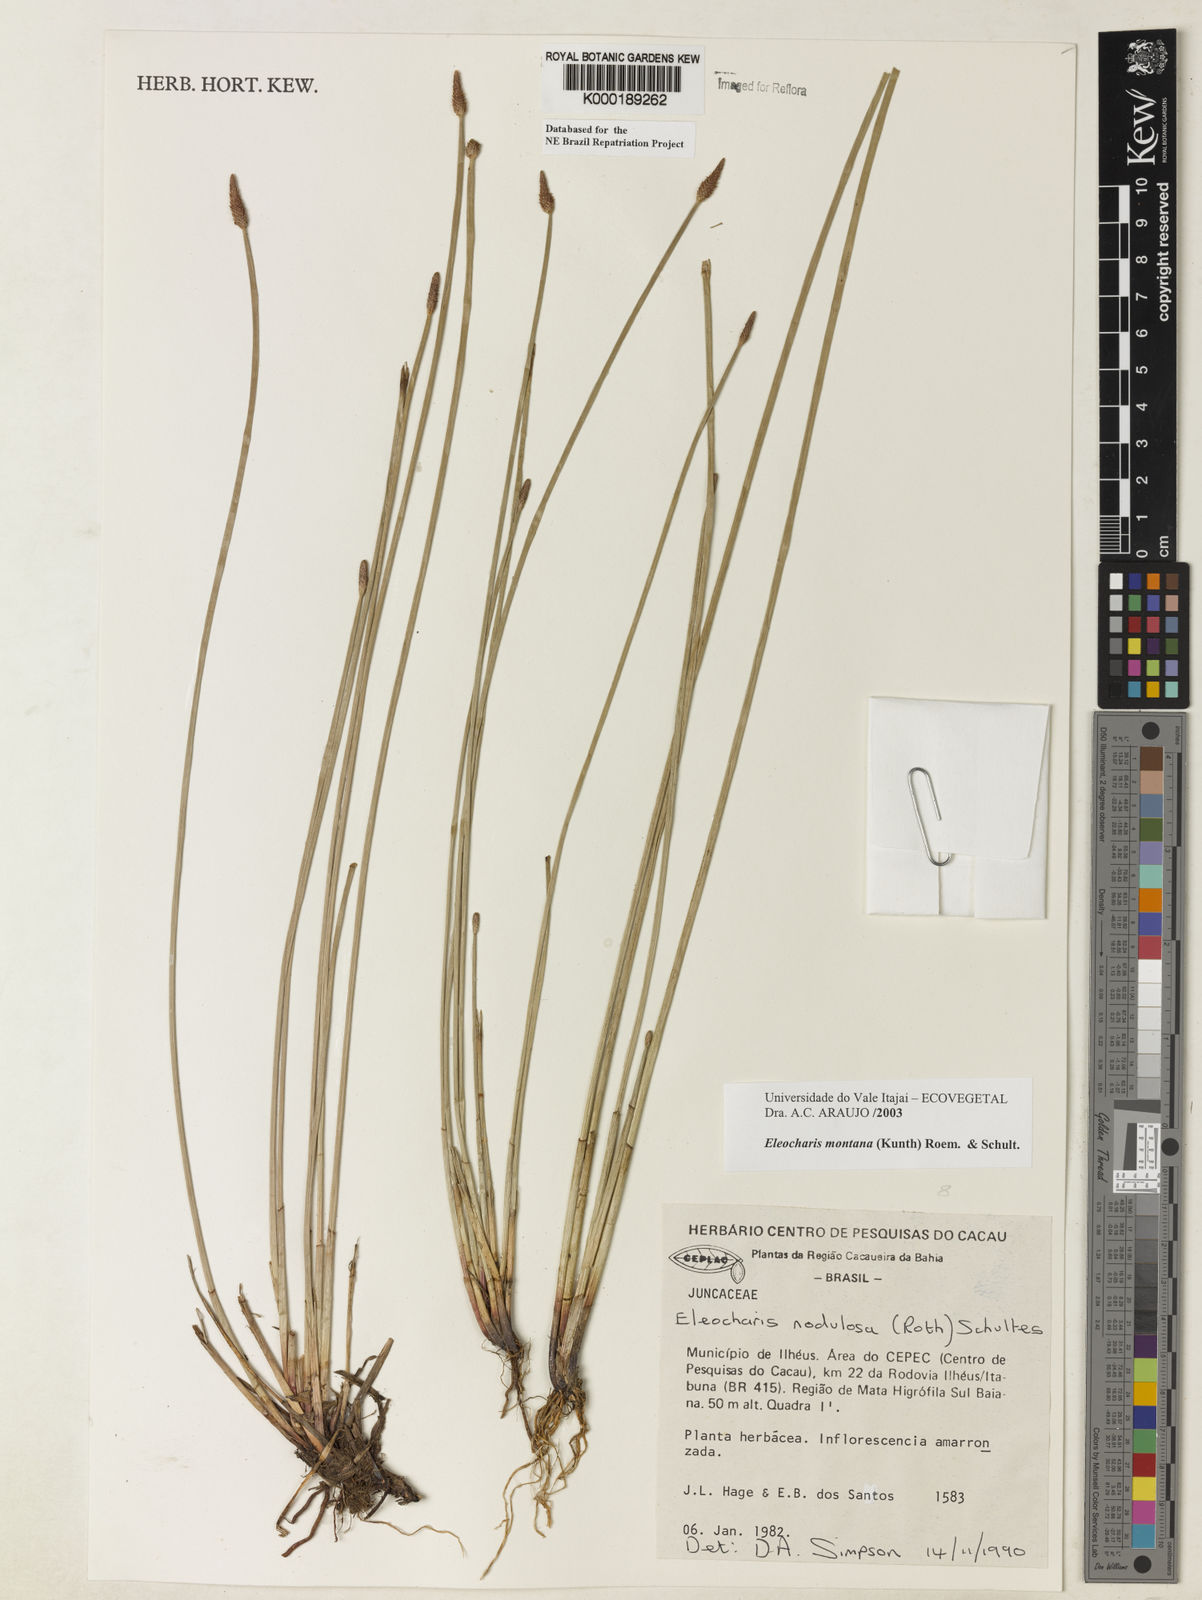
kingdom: Plantae
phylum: Tracheophyta
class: Liliopsida
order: Poales
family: Cyperaceae
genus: Eleocharis
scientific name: Eleocharis montana
